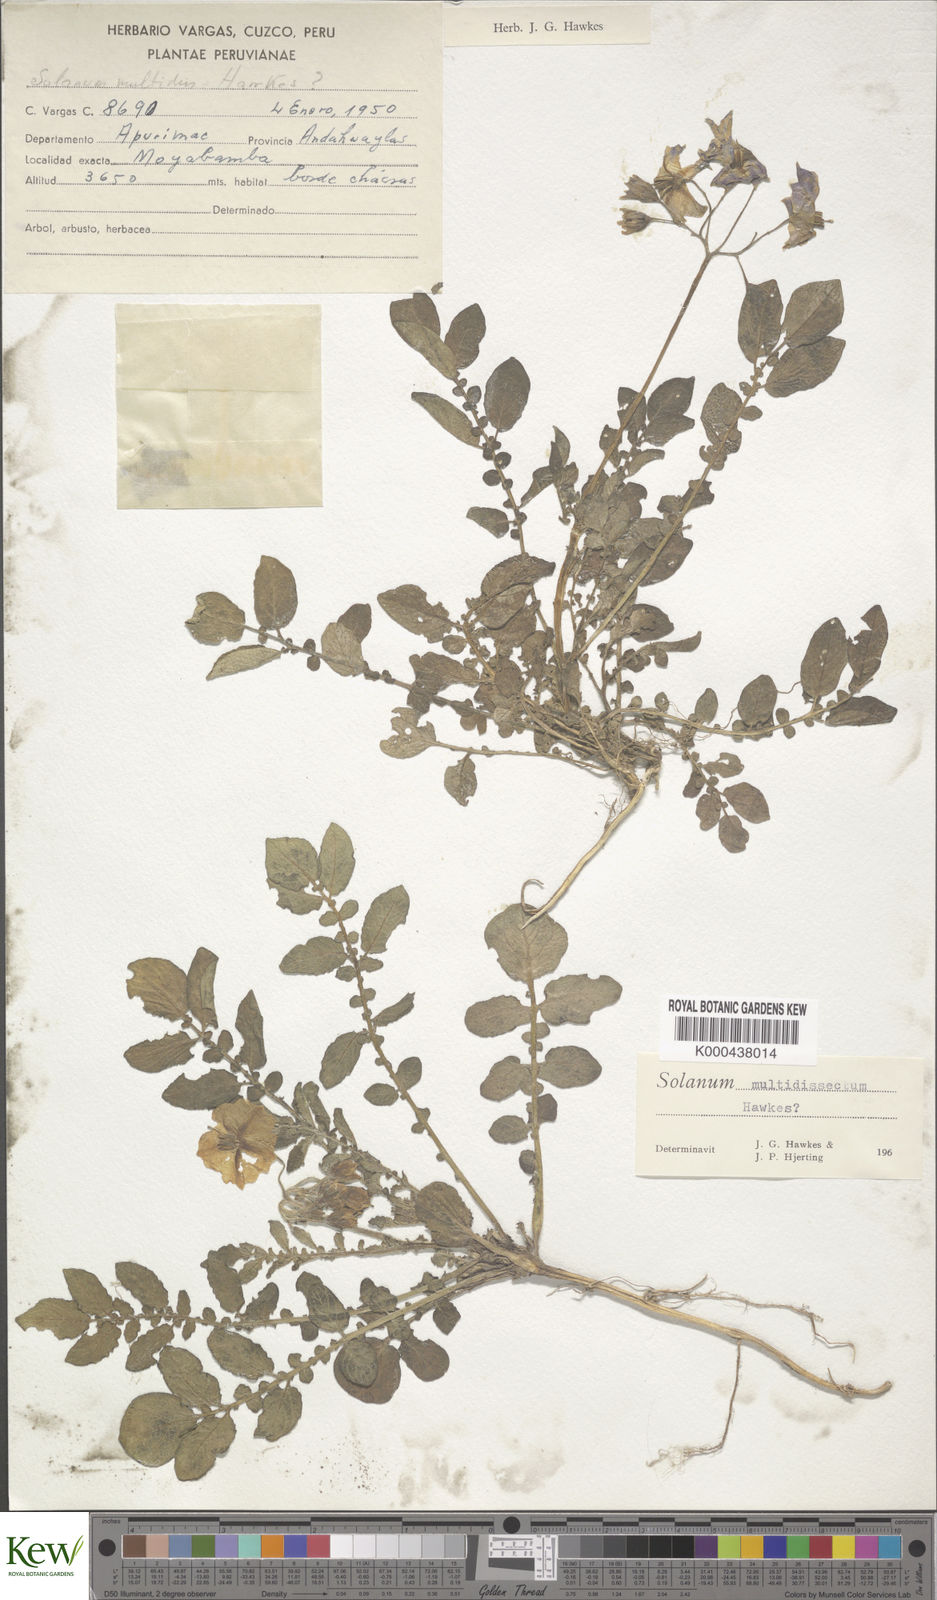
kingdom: Plantae
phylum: Tracheophyta
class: Magnoliopsida
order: Solanales
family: Solanaceae
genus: Solanum
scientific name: Solanum candolleanum
